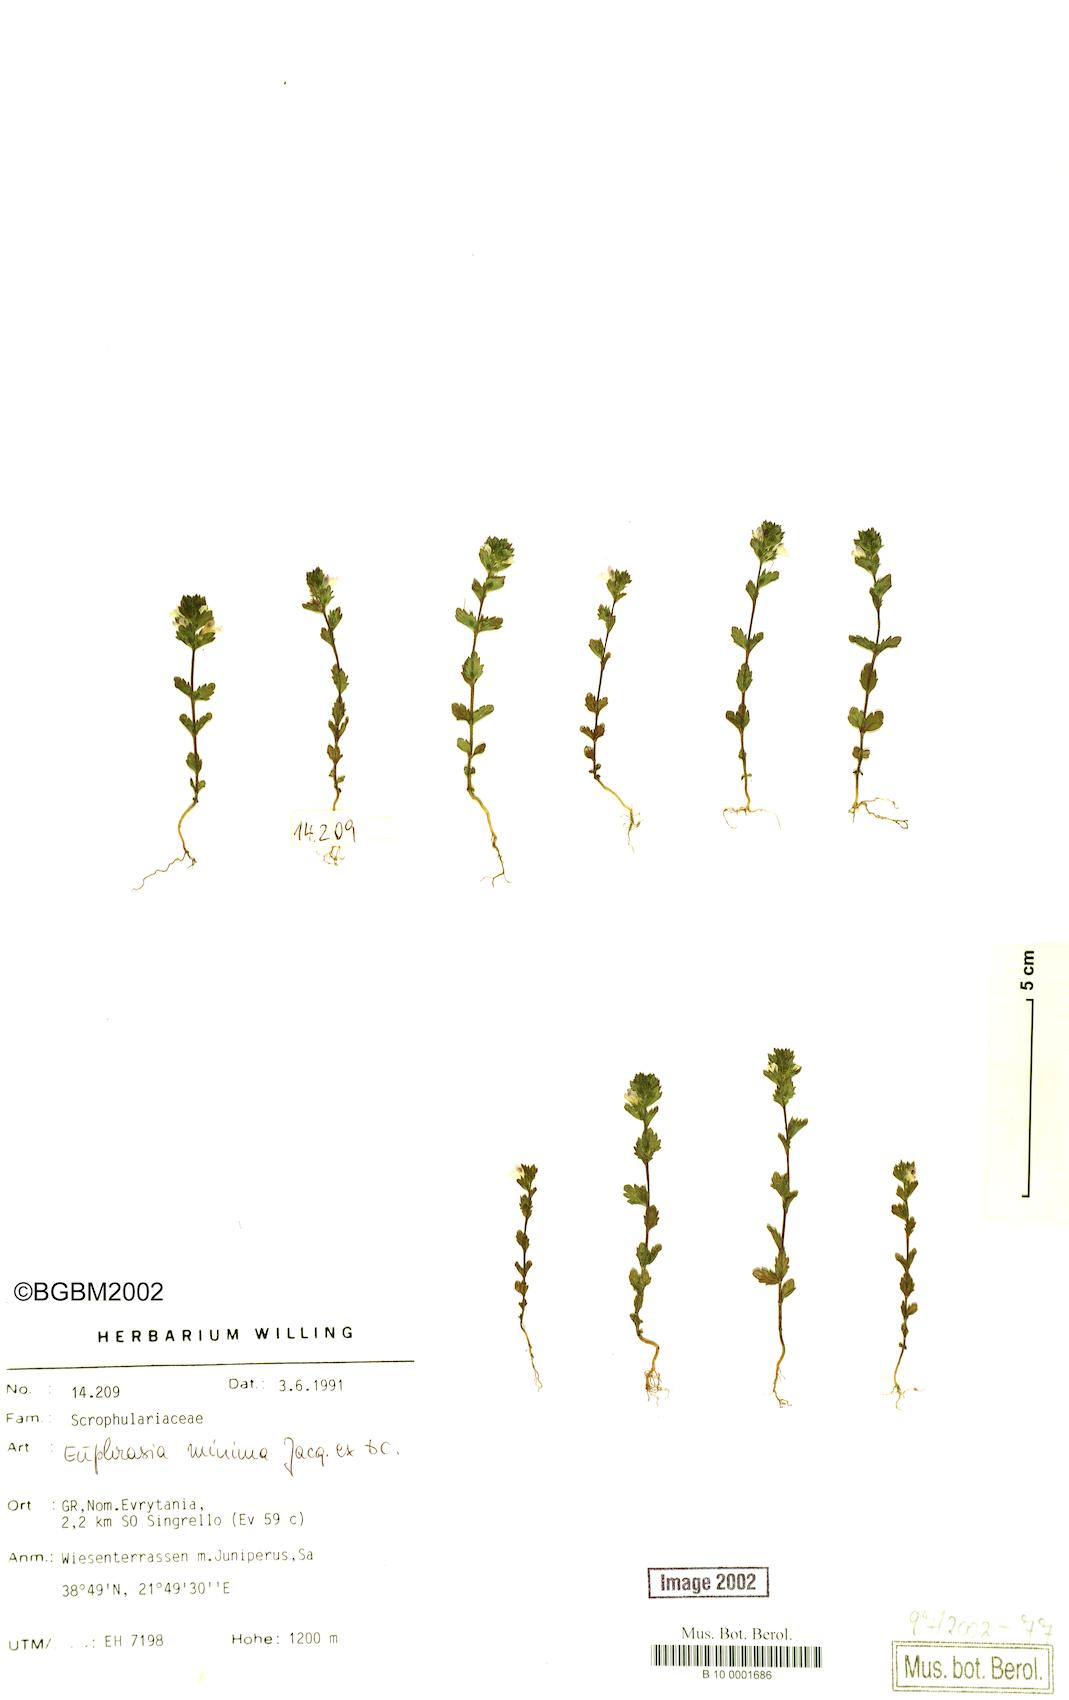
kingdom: Plantae
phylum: Tracheophyta
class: Magnoliopsida
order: Lamiales
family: Orobanchaceae
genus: Euphrasia
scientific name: Euphrasia minima
